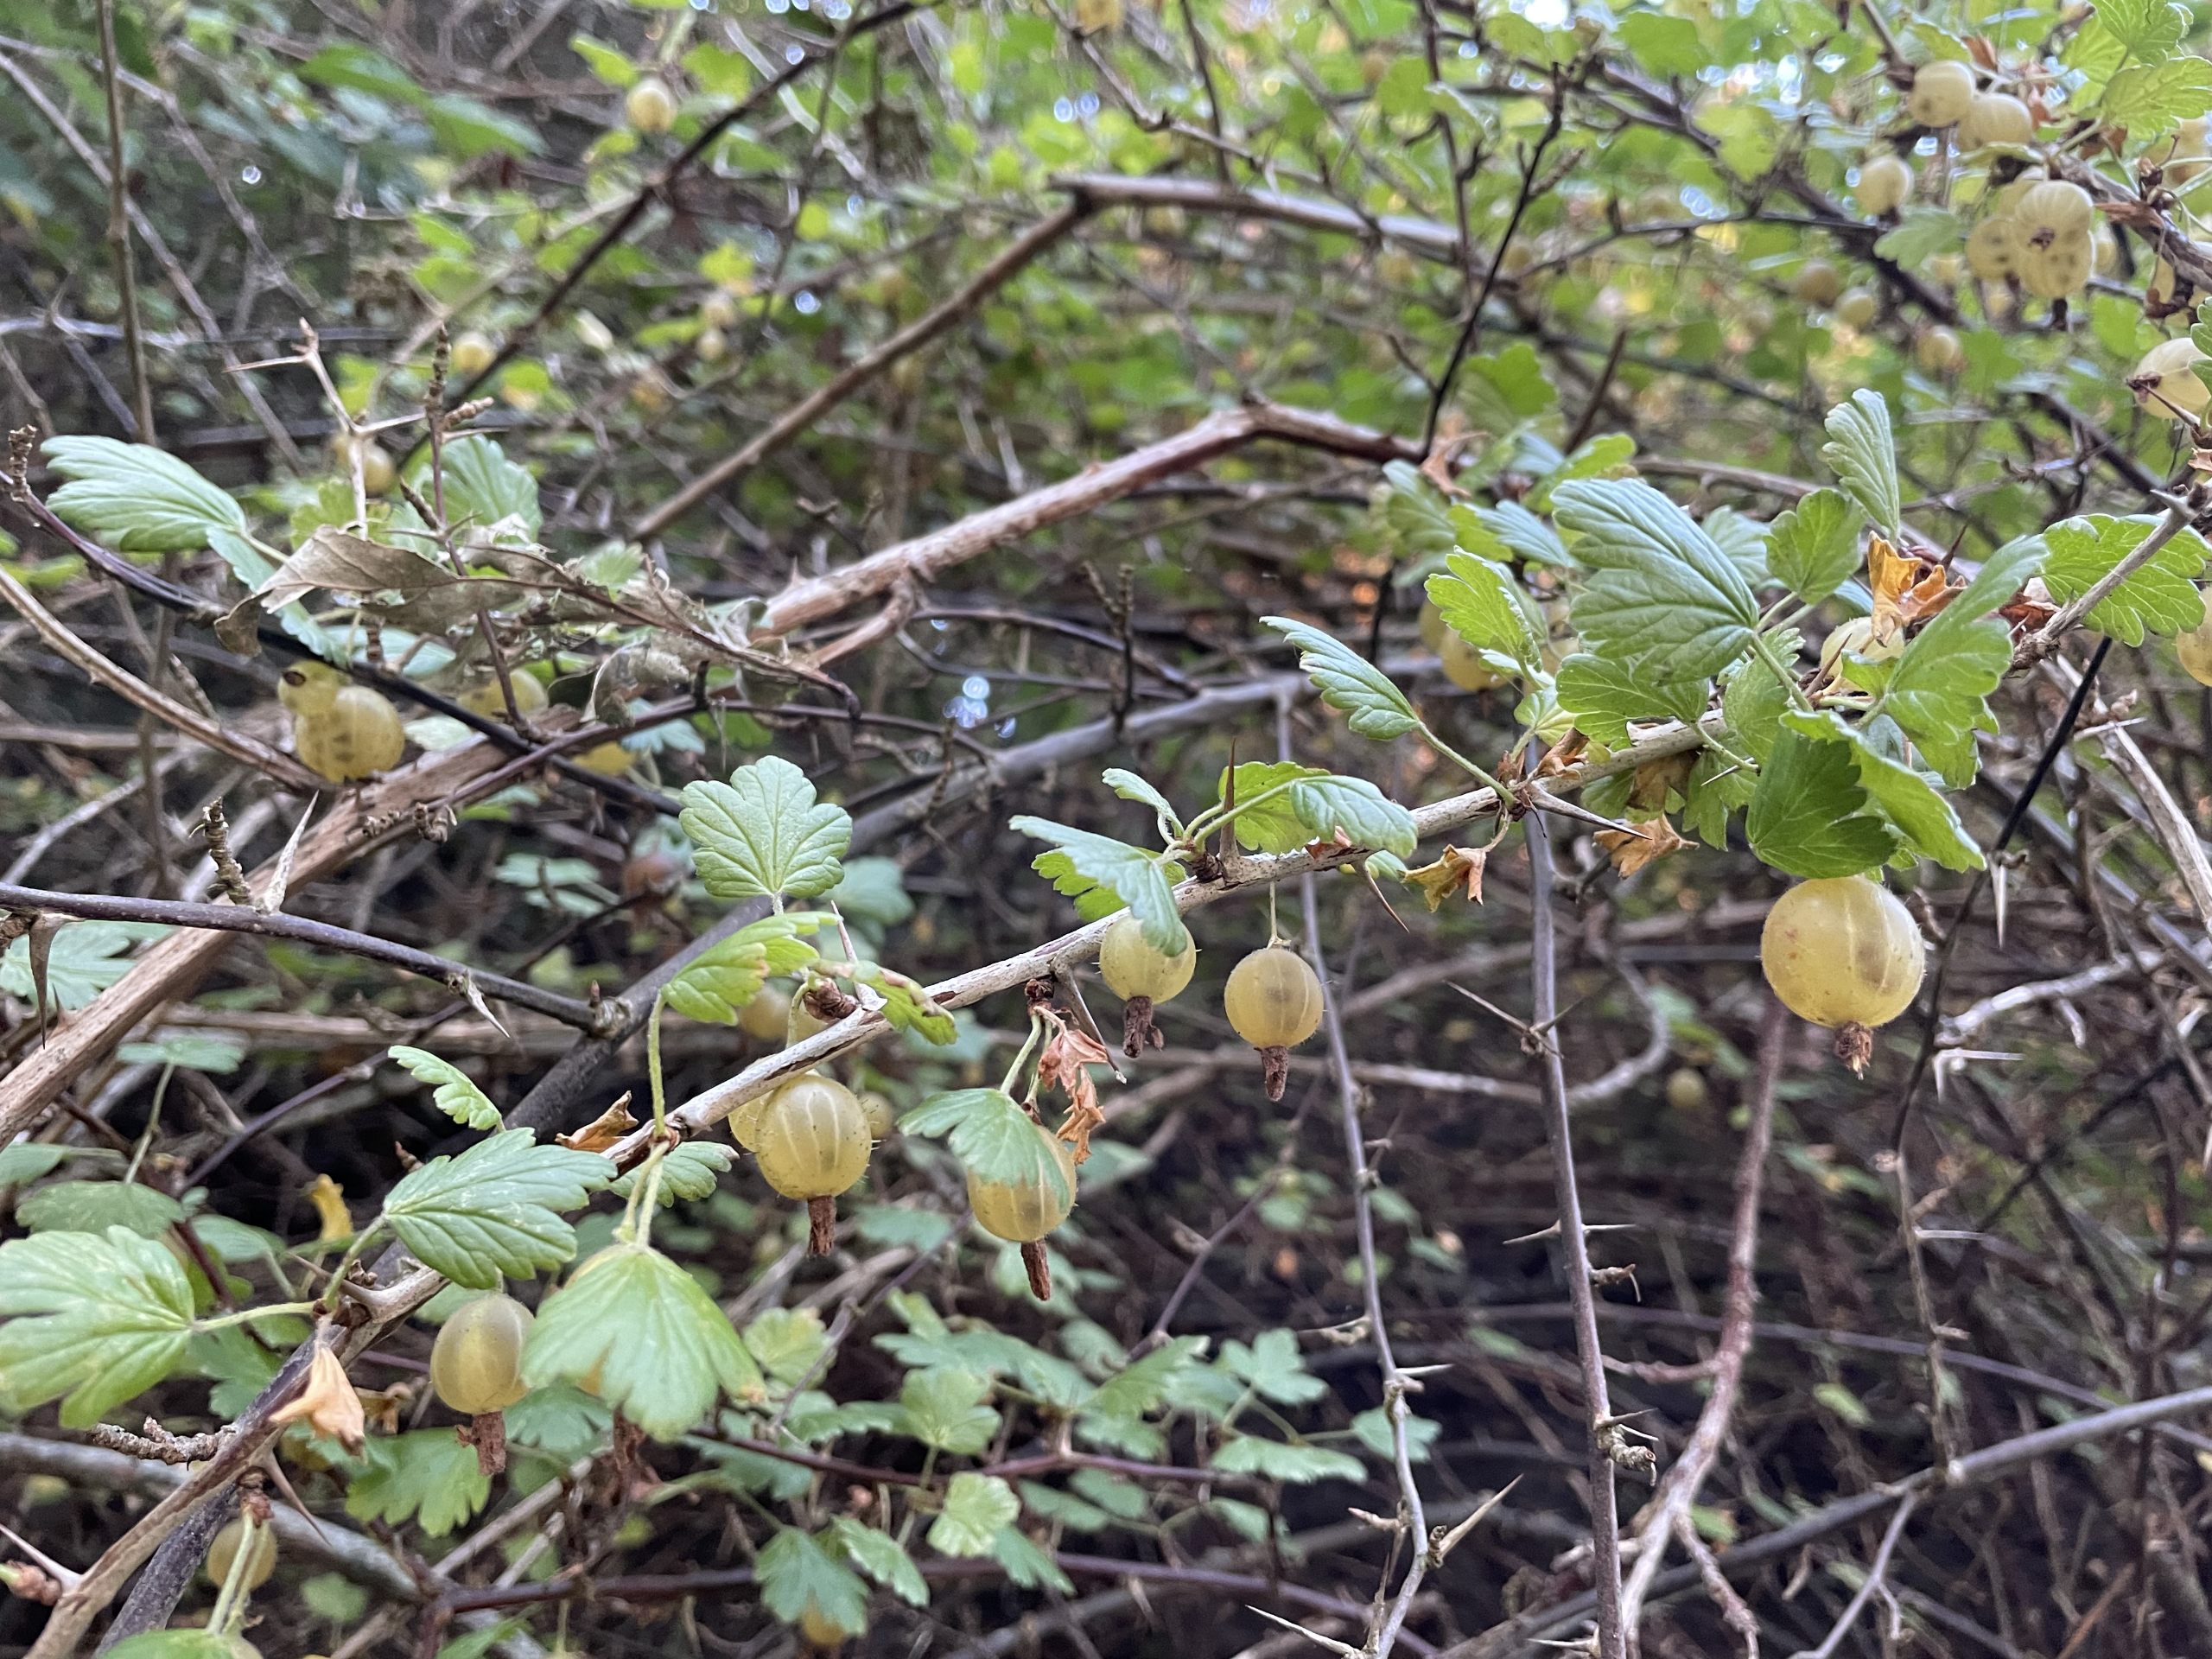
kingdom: Plantae
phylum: Tracheophyta
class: Magnoliopsida
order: Saxifragales
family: Grossulariaceae
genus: Ribes
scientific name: Ribes uva-crispa
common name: Stikkelsbær
